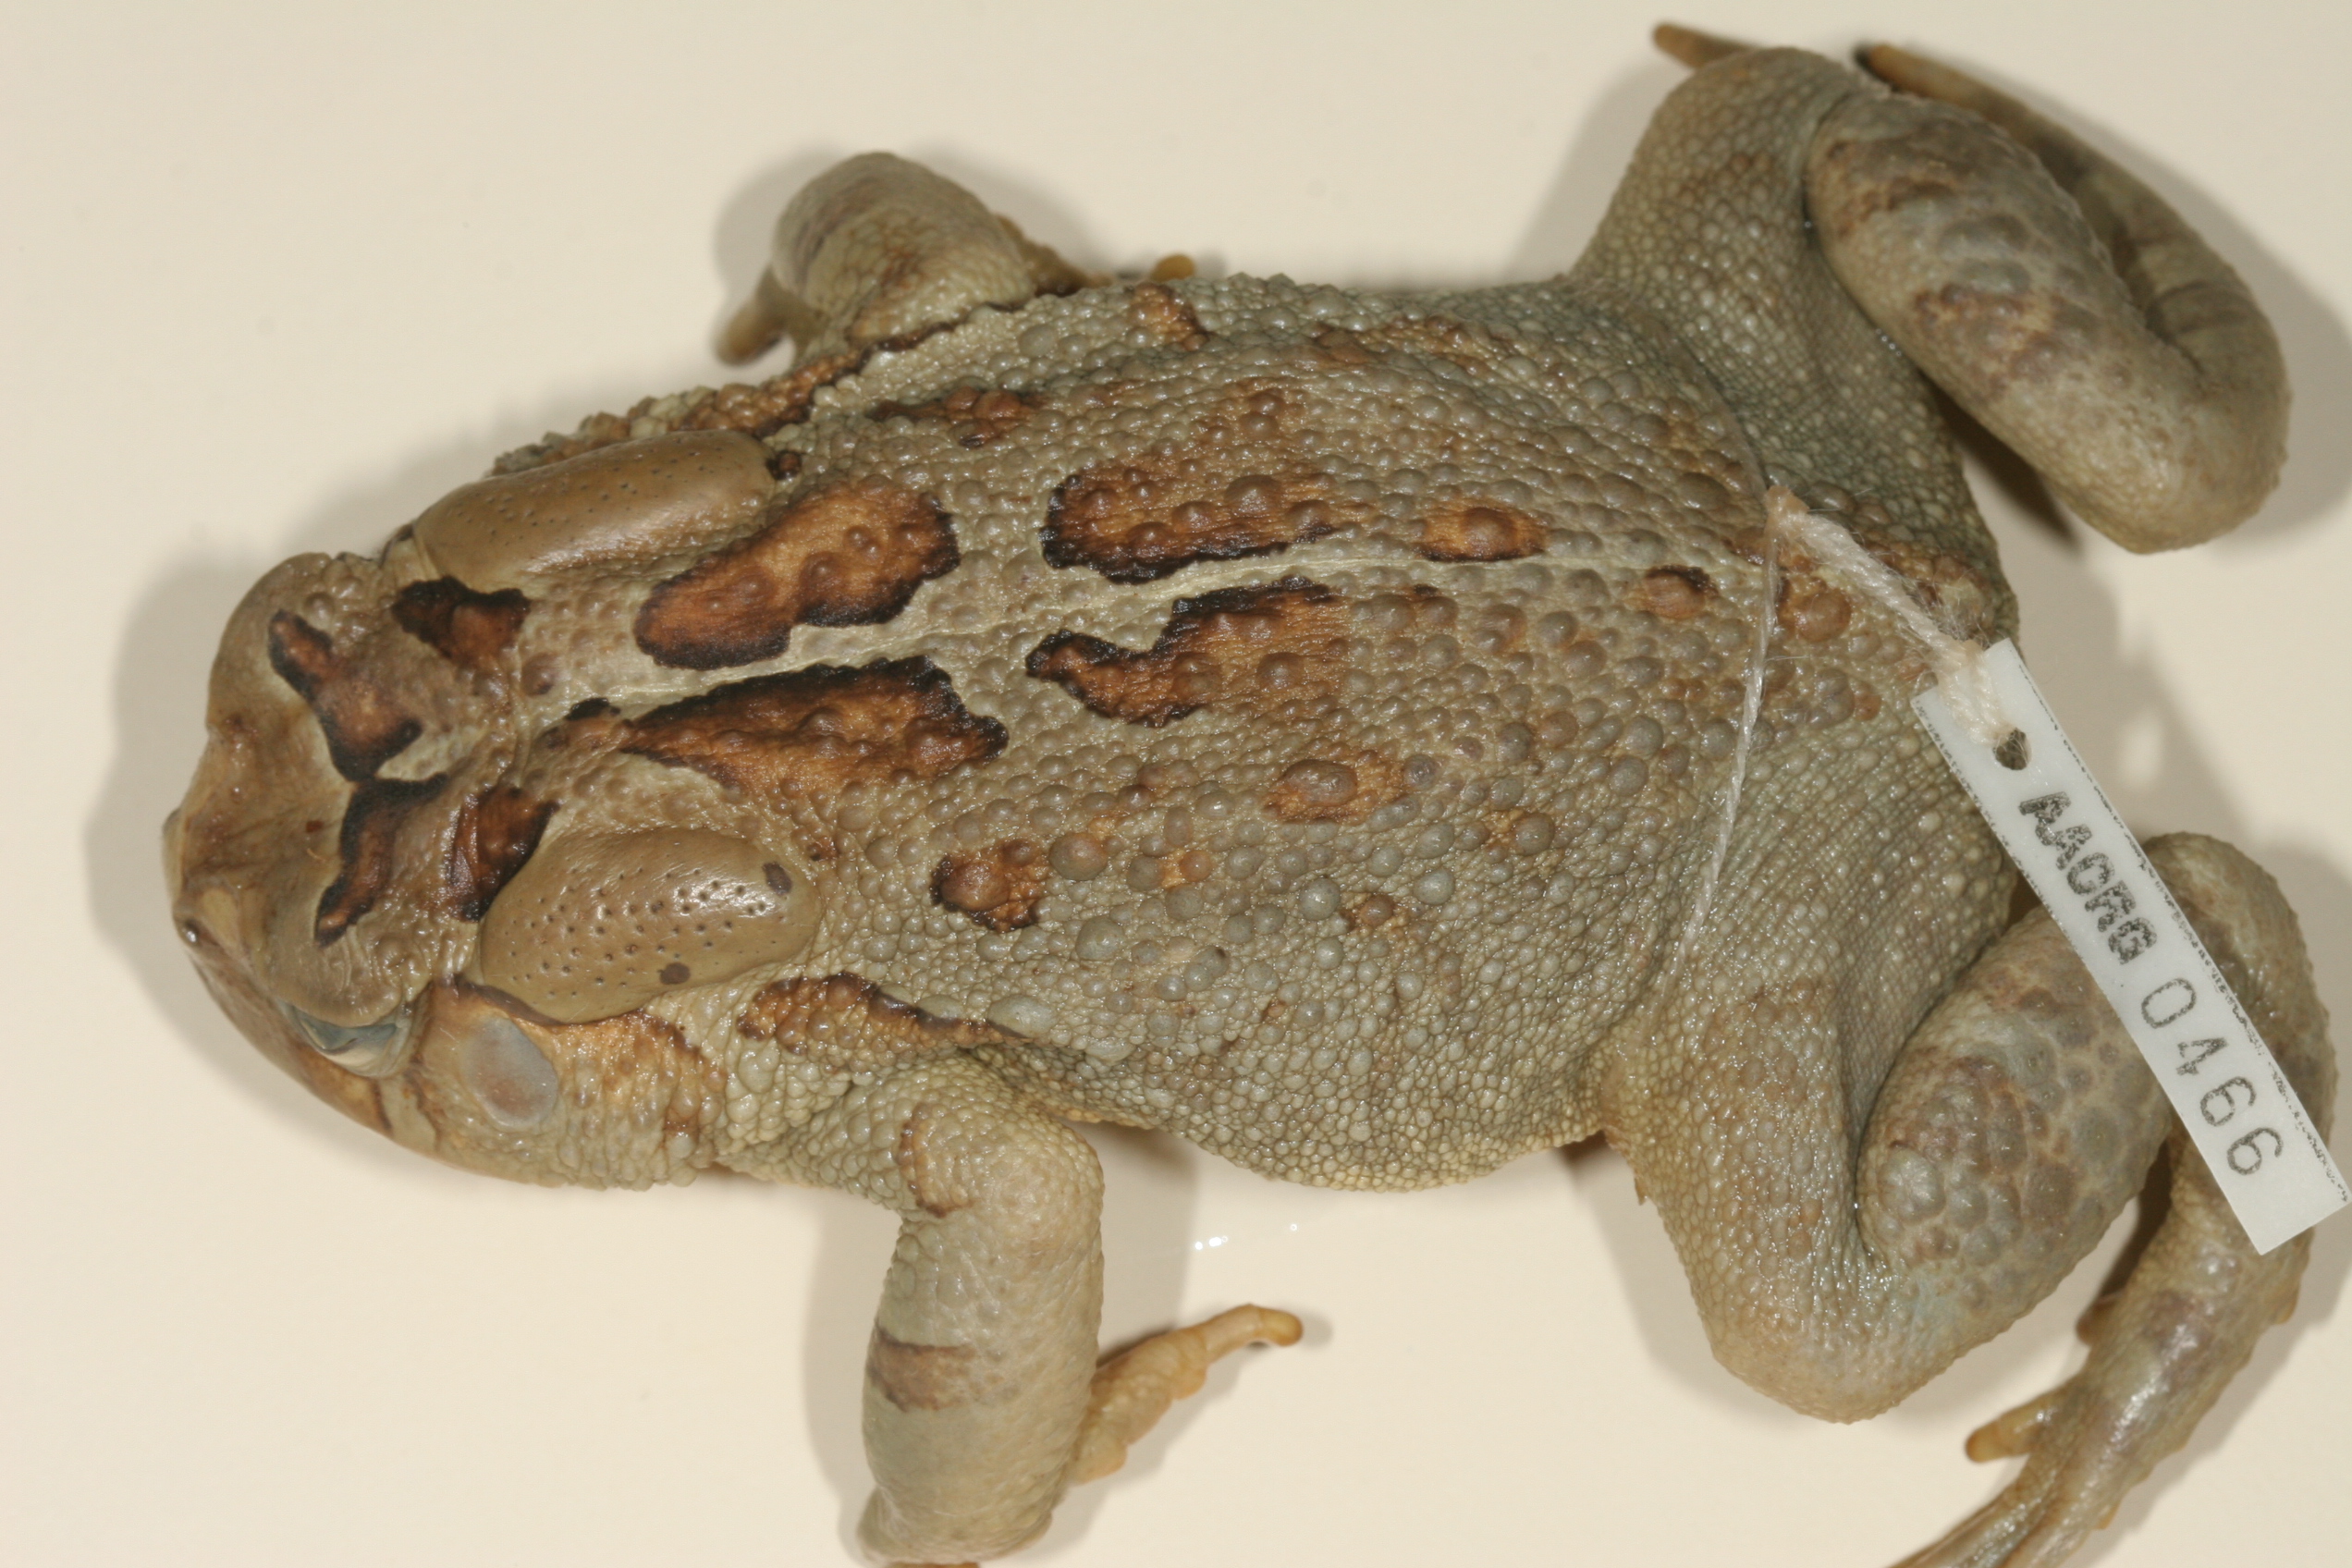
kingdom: Animalia
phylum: Chordata
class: Amphibia
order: Anura
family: Bufonidae
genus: Sclerophrys
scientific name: Sclerophrys pardalis
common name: Eastern leopard toad
